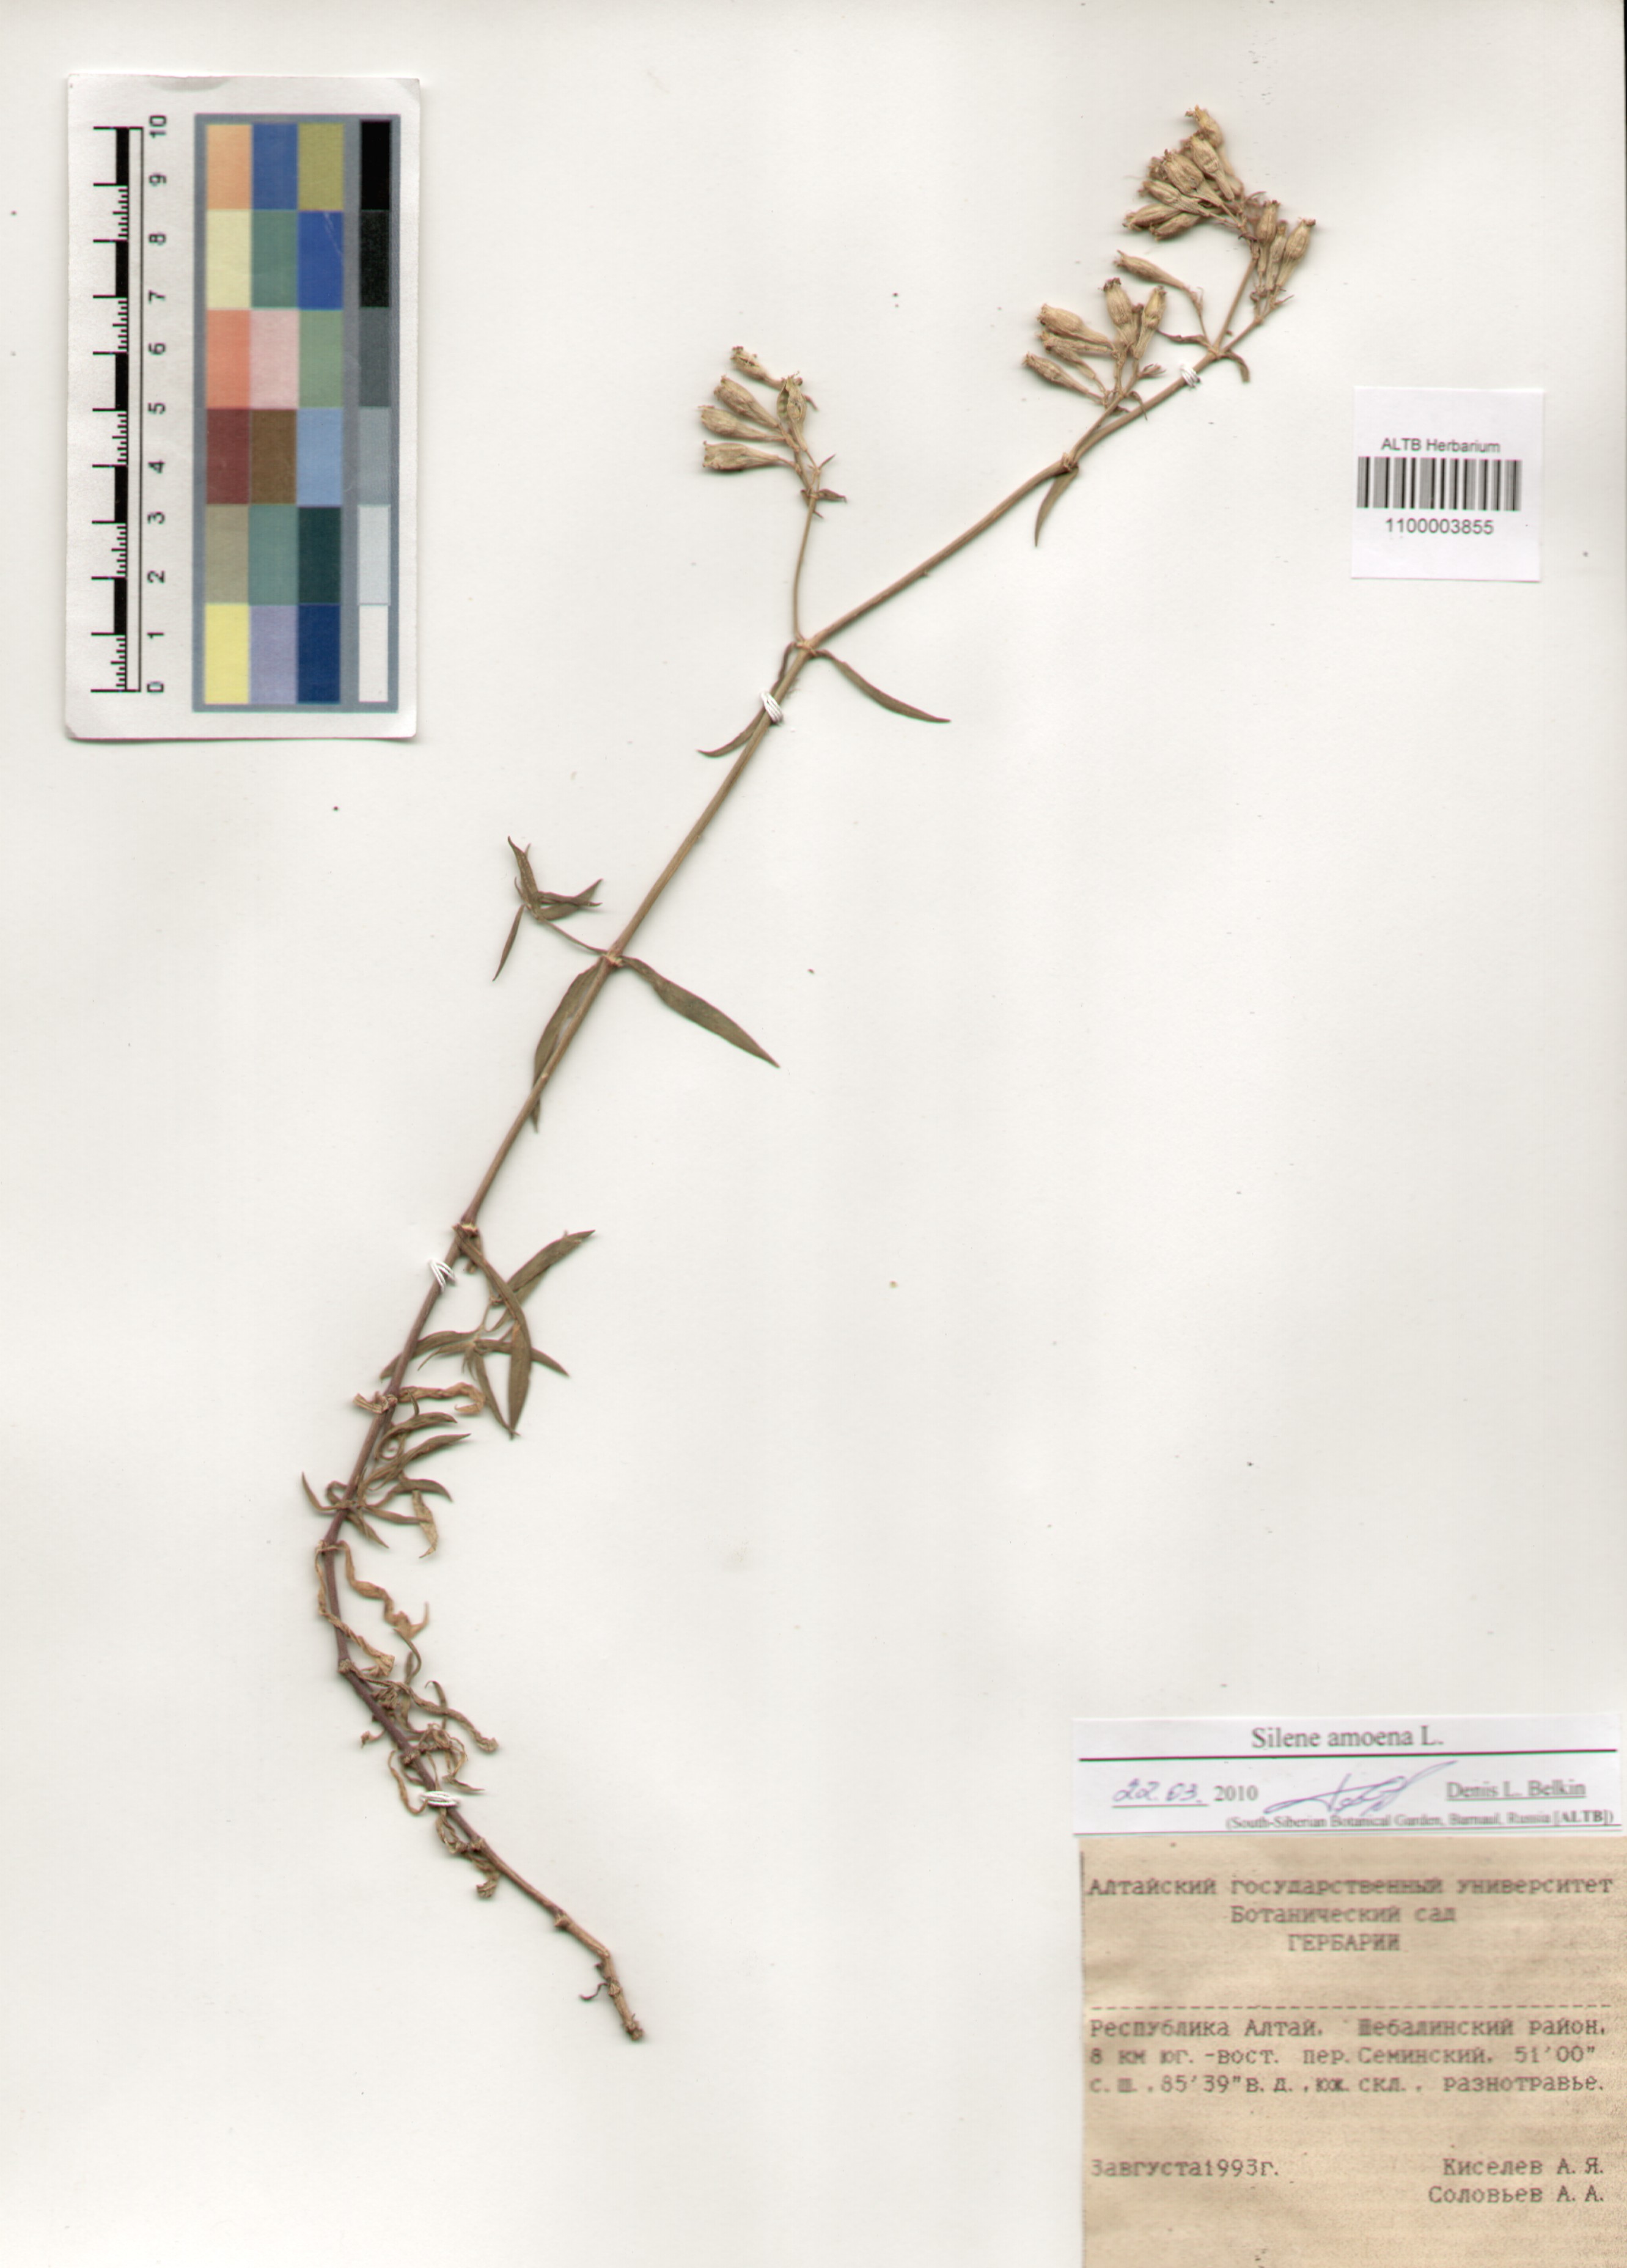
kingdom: Plantae
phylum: Tracheophyta
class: Magnoliopsida
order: Caryophyllales
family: Caryophyllaceae
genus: Silene
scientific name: Silene amoena
